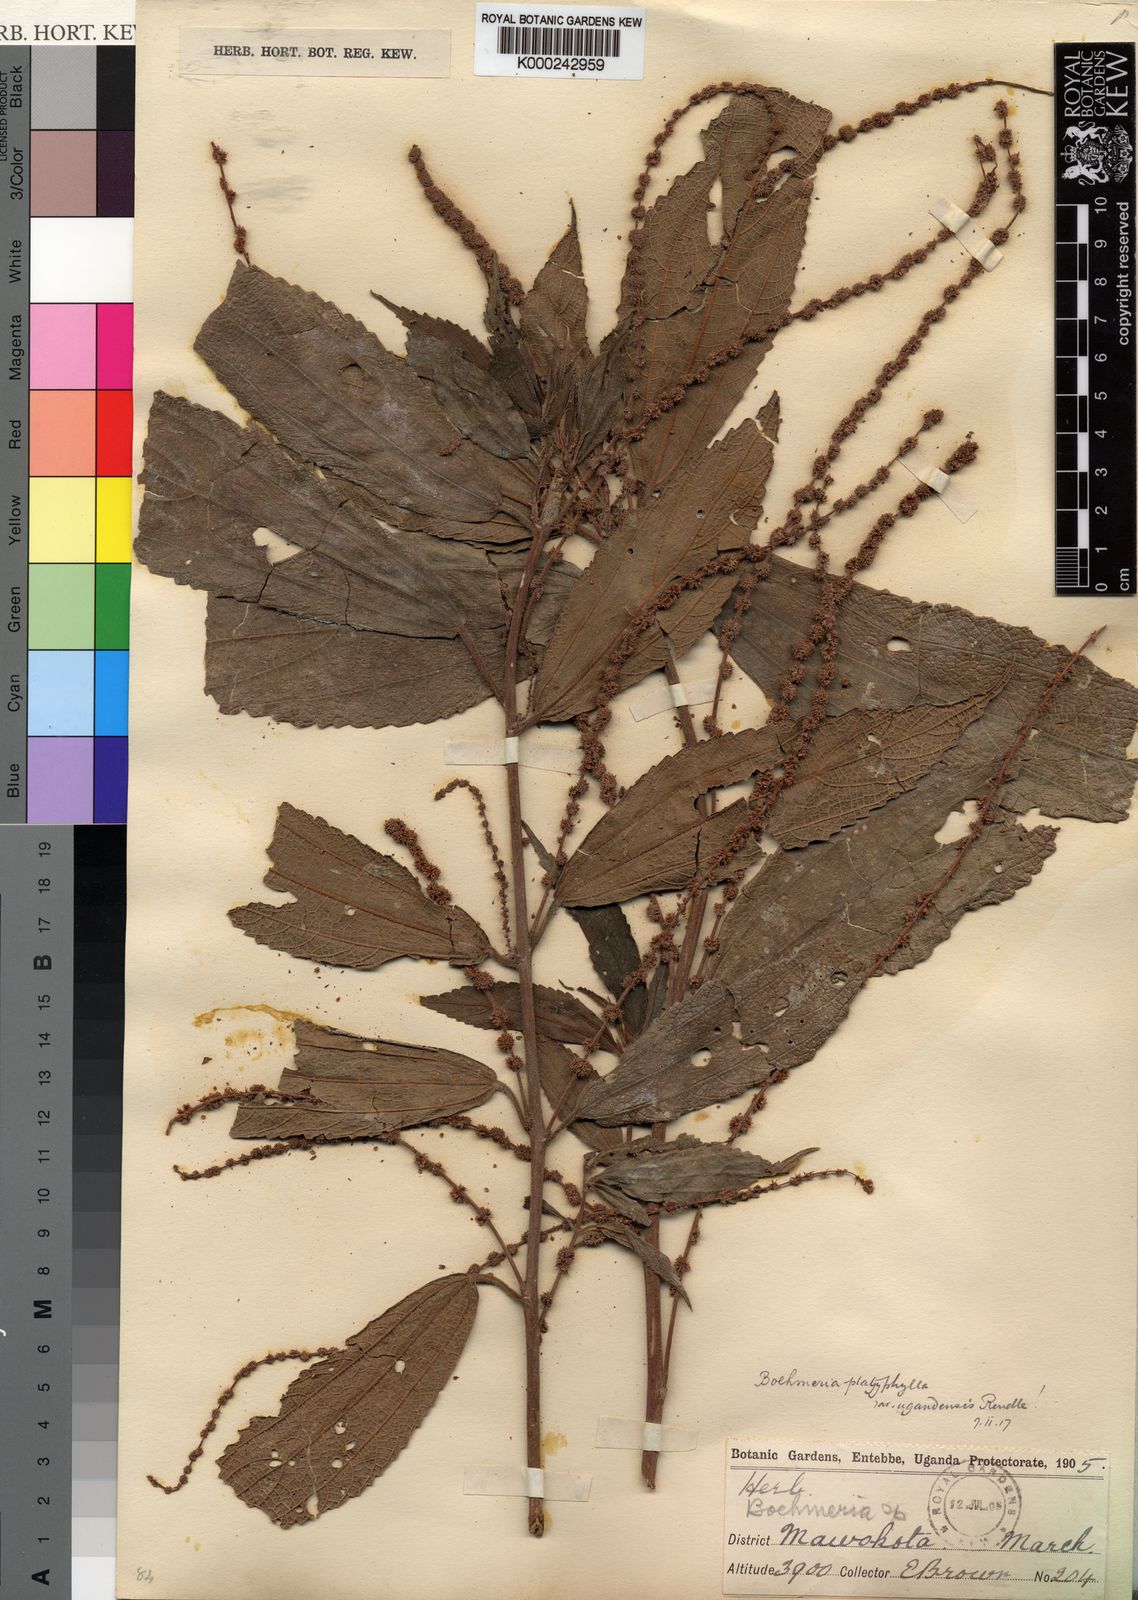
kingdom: Plantae
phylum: Tracheophyta
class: Magnoliopsida
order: Rosales
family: Urticaceae
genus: Boehmeria
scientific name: Boehmeria virgata
